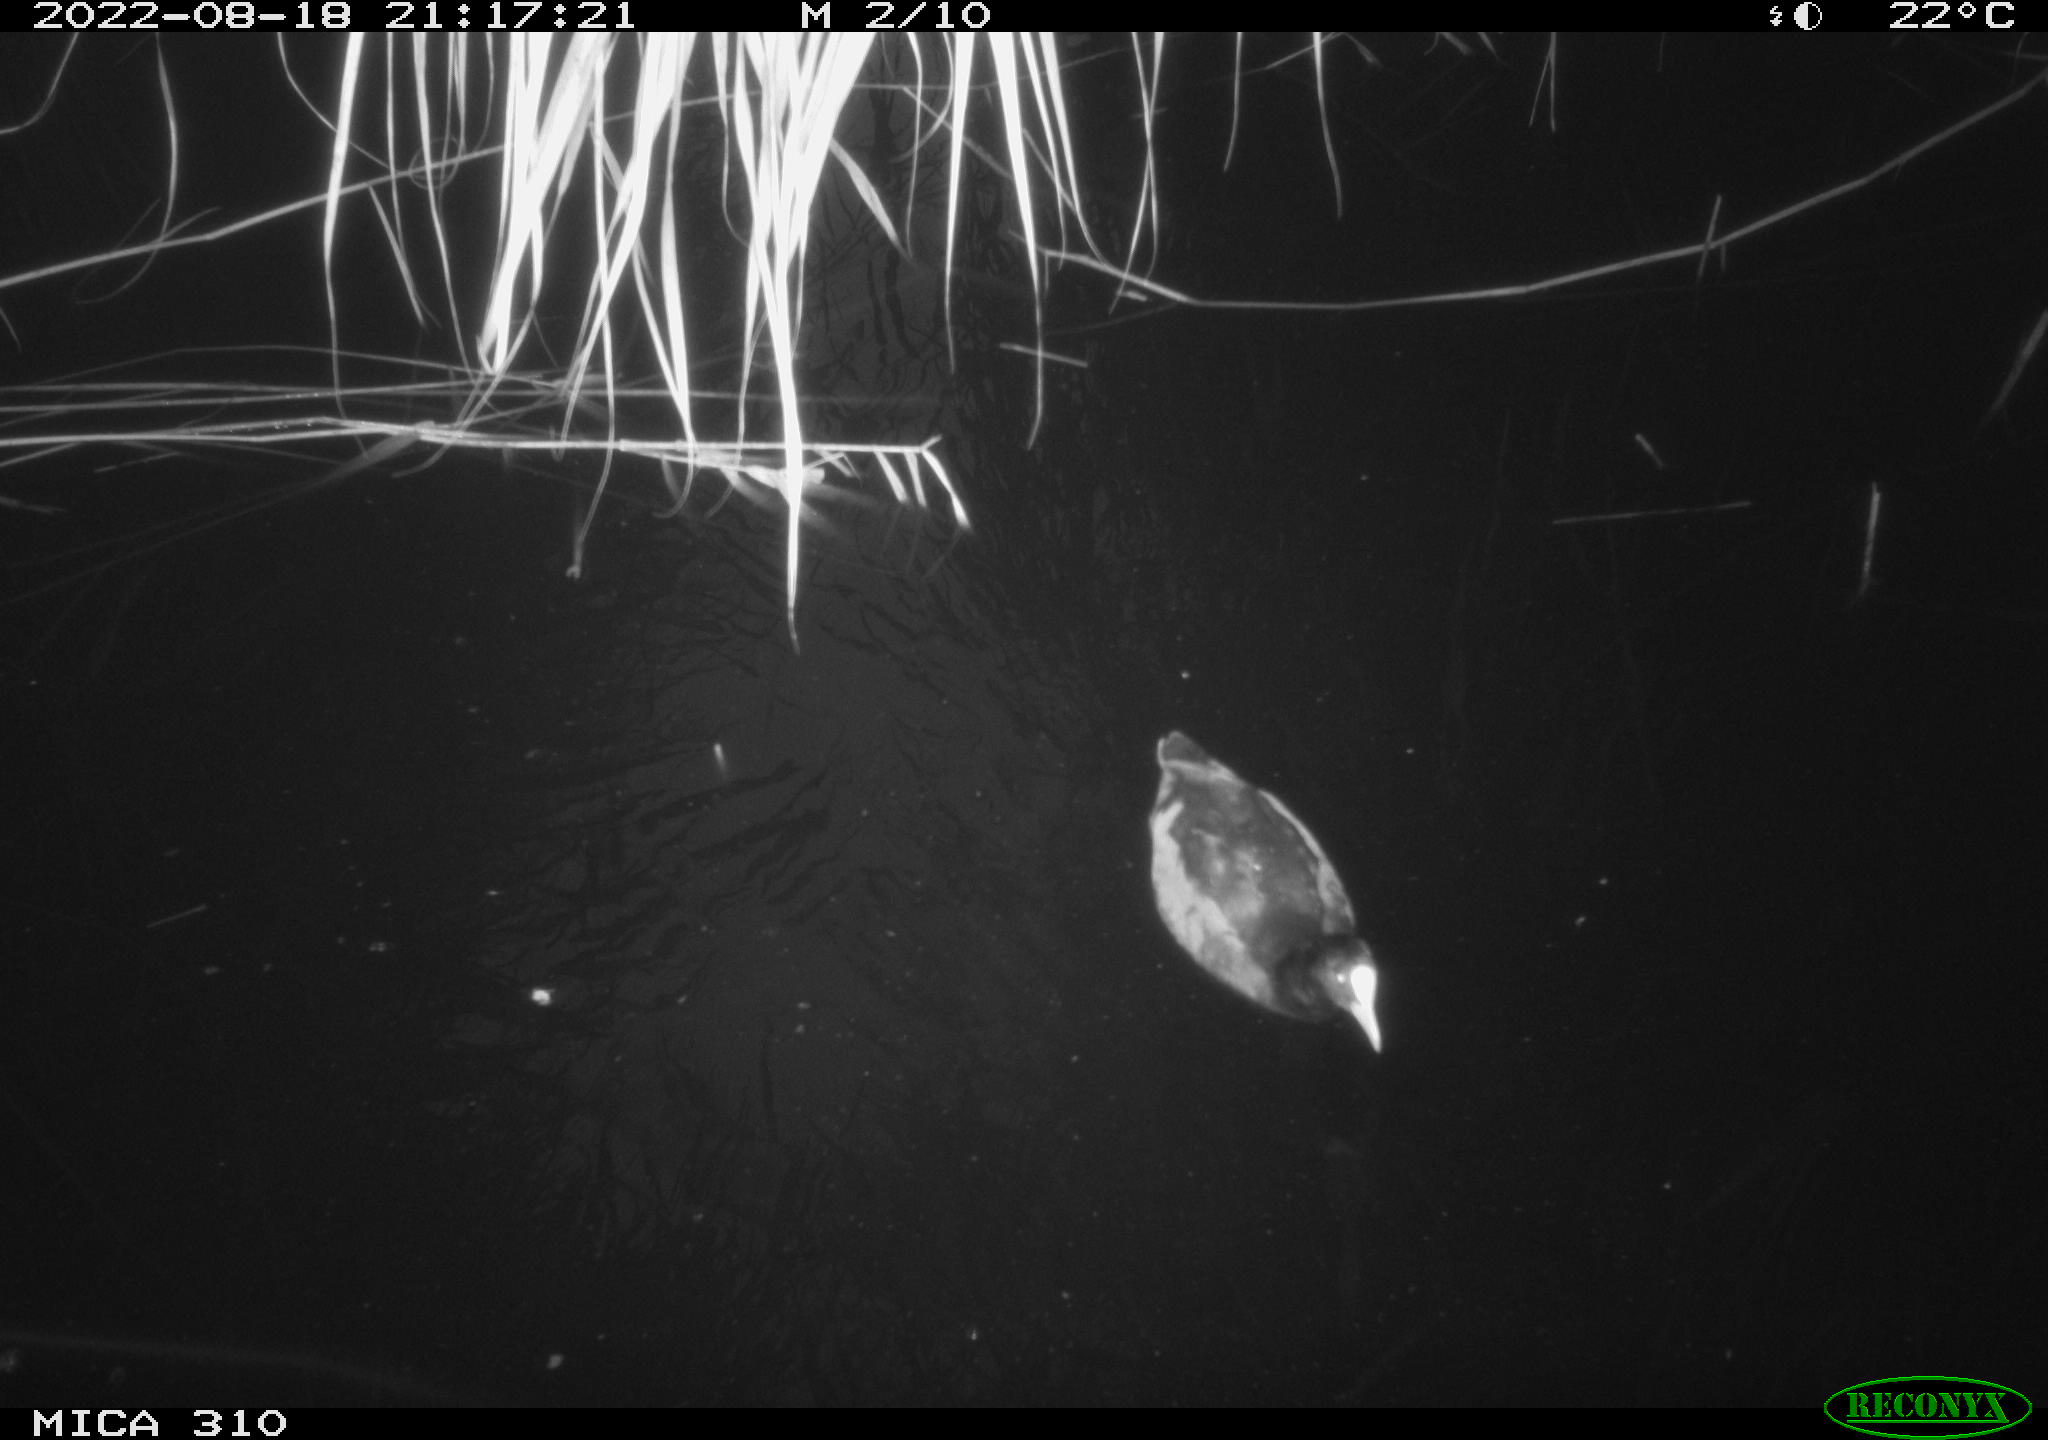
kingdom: Animalia
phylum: Chordata
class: Aves
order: Gruiformes
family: Rallidae
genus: Fulica
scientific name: Fulica atra
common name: Eurasian coot
